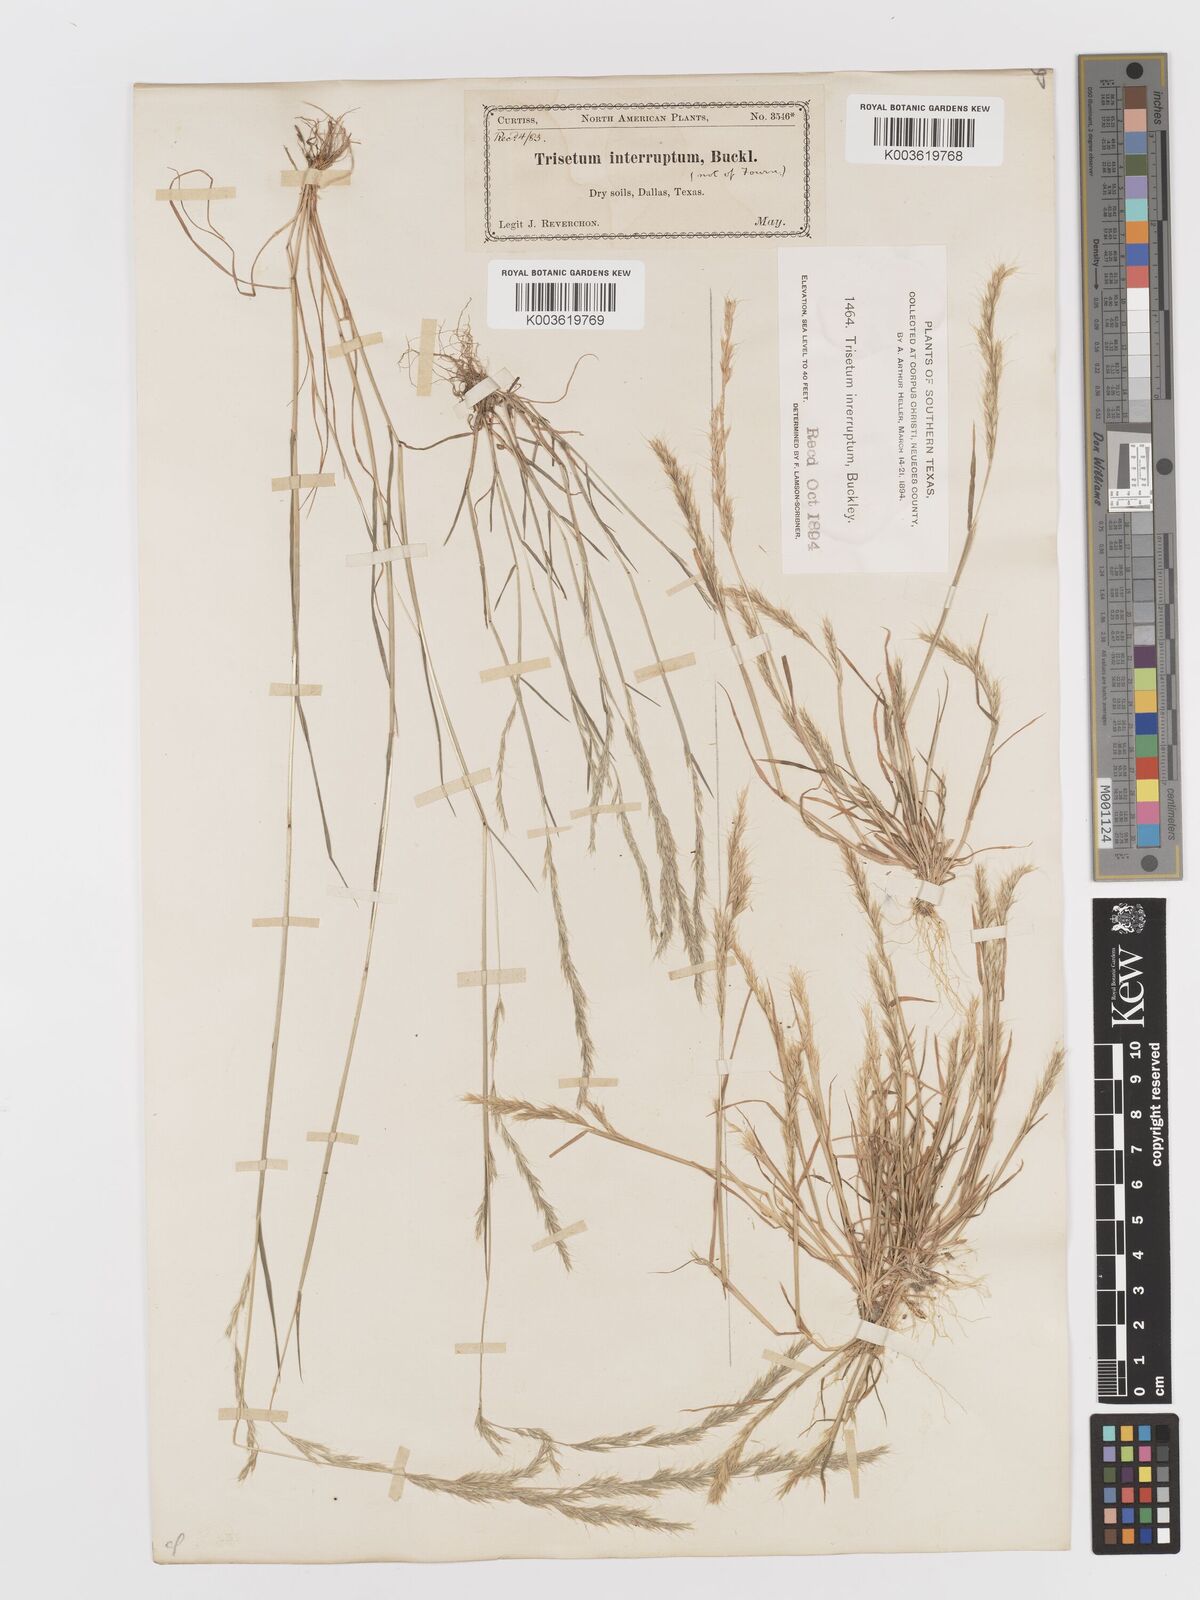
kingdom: Plantae
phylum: Tracheophyta
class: Liliopsida
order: Poales
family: Poaceae
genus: Sphenopholis
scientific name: Sphenopholis interrupta
